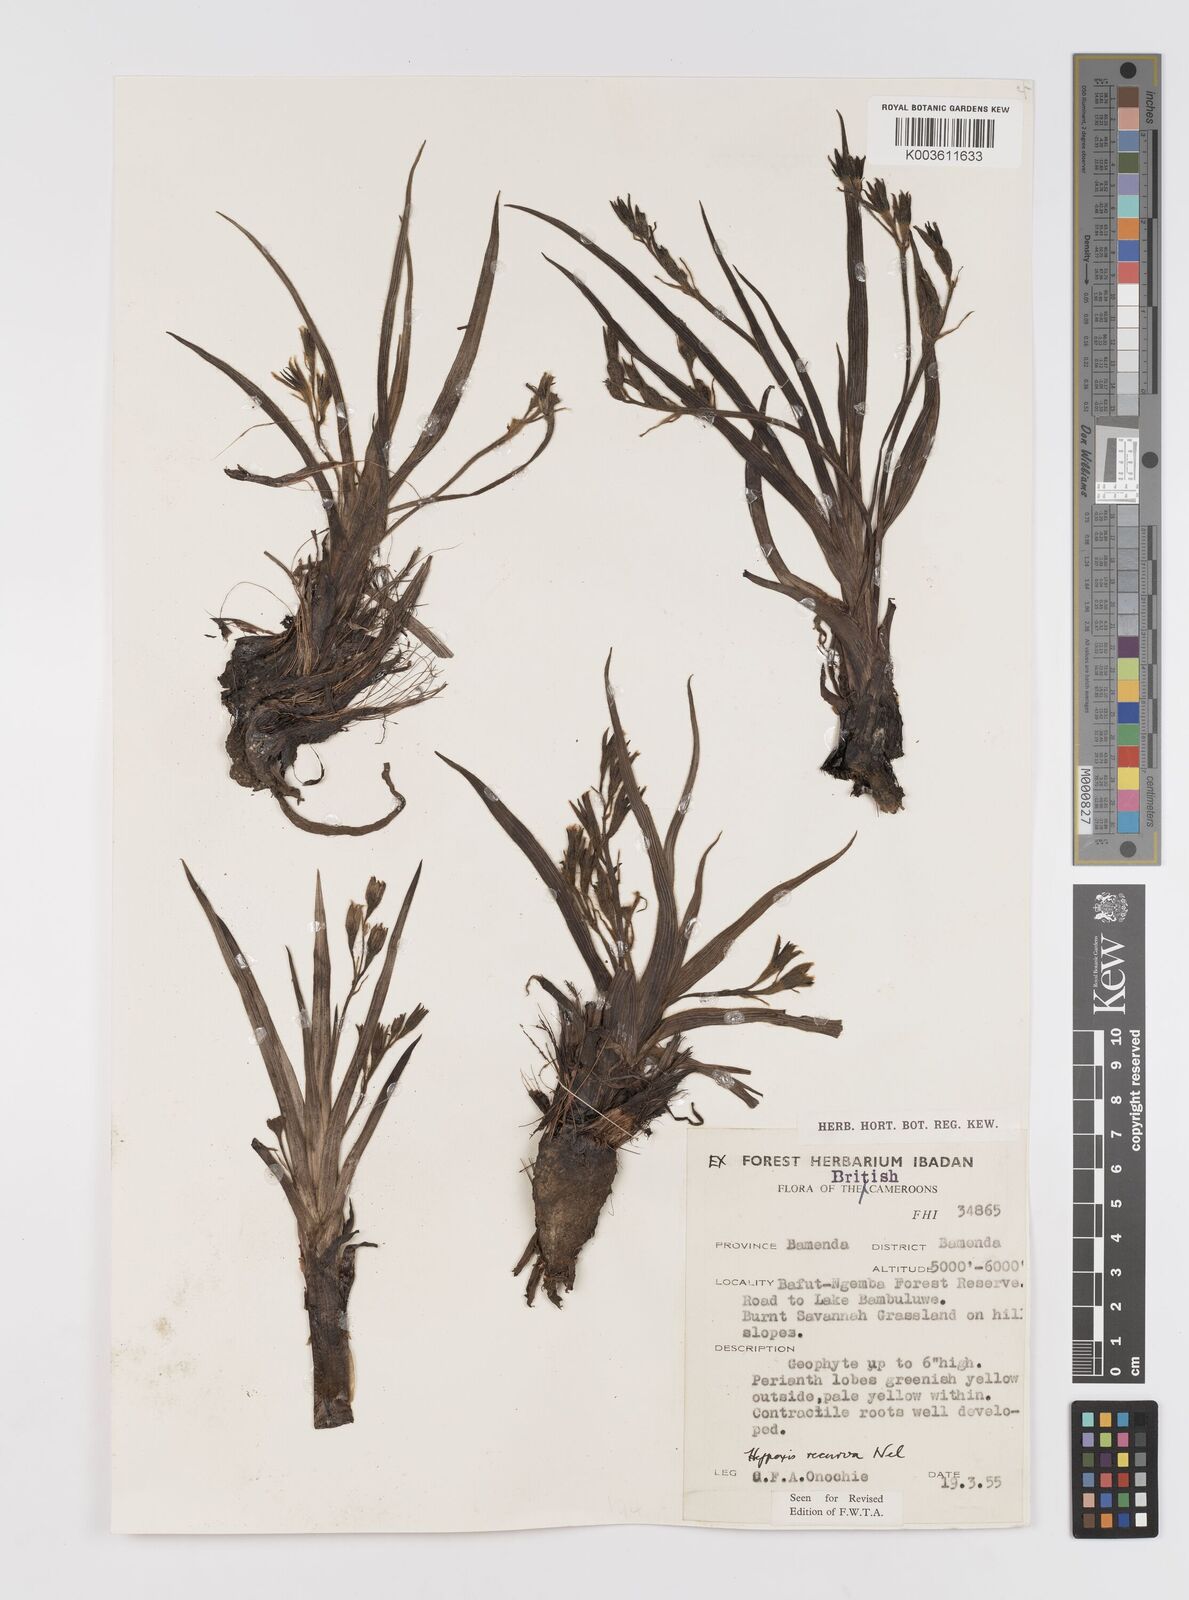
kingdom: Plantae
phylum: Tracheophyta
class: Liliopsida
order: Asparagales
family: Hypoxidaceae
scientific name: Hypoxidaceae
